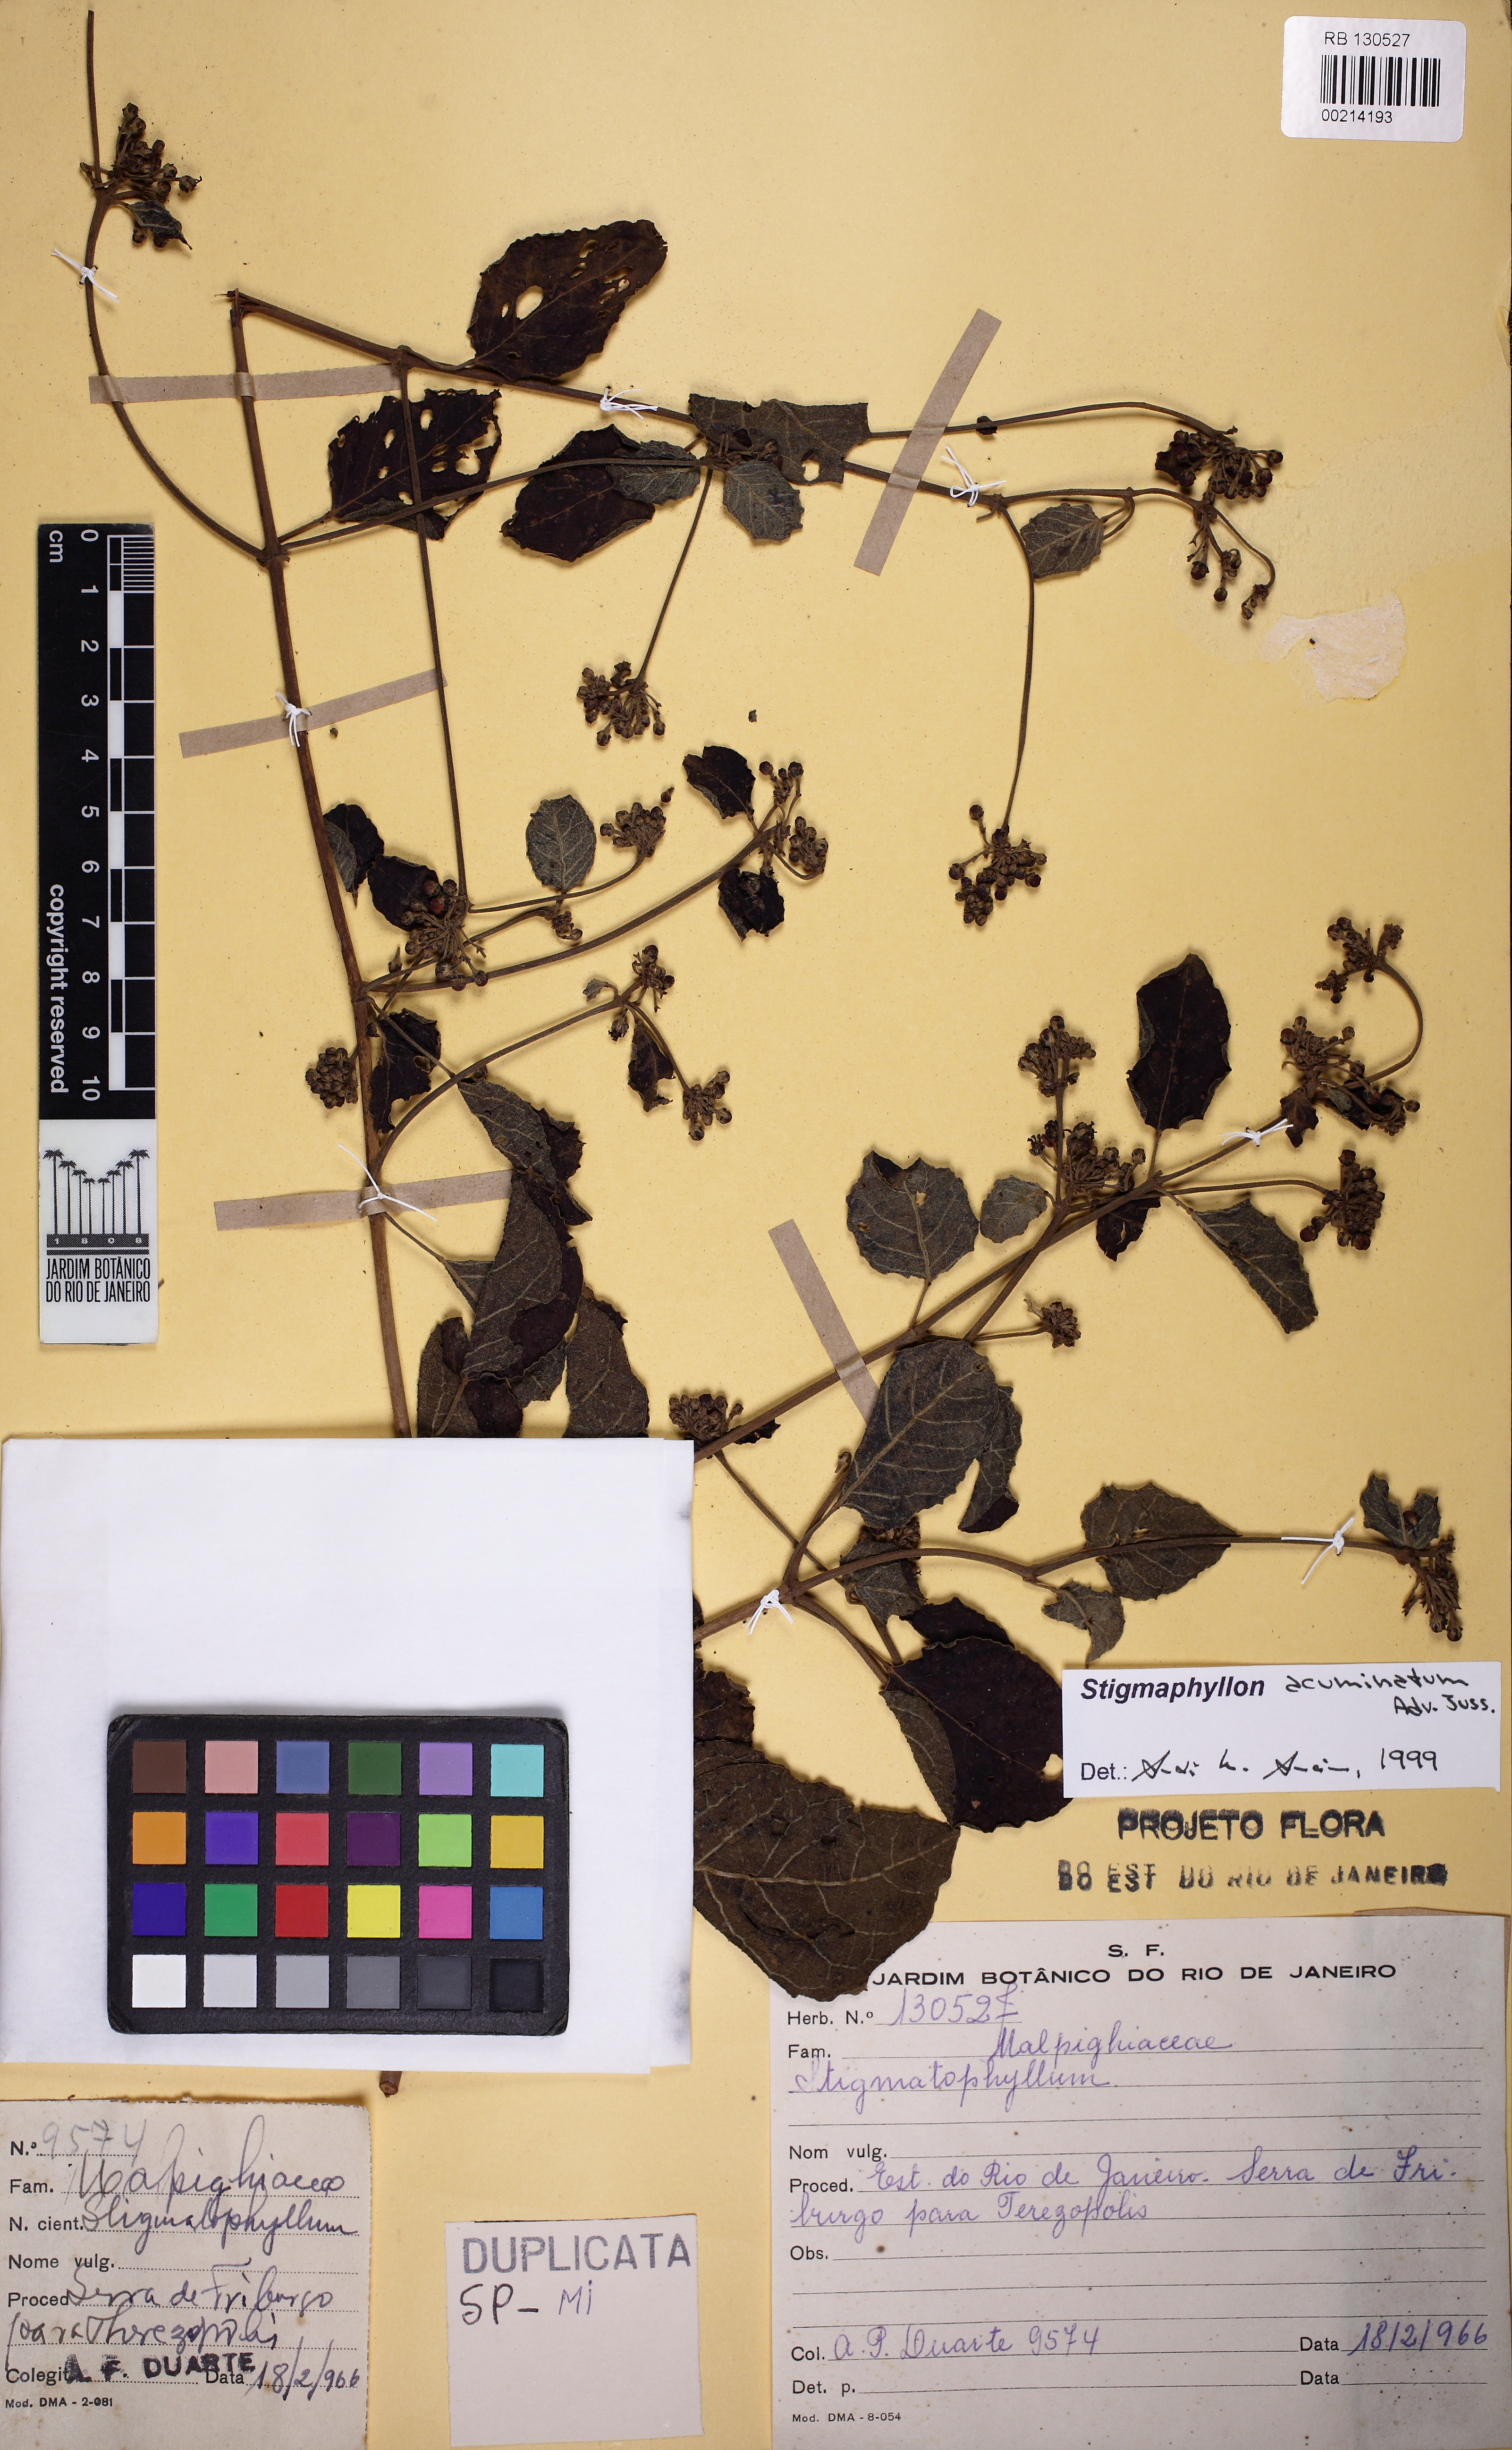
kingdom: Plantae
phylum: Tracheophyta
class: Magnoliopsida
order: Malpighiales
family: Malpighiaceae
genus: Stigmaphyllon
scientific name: Stigmaphyllon acuminatum
